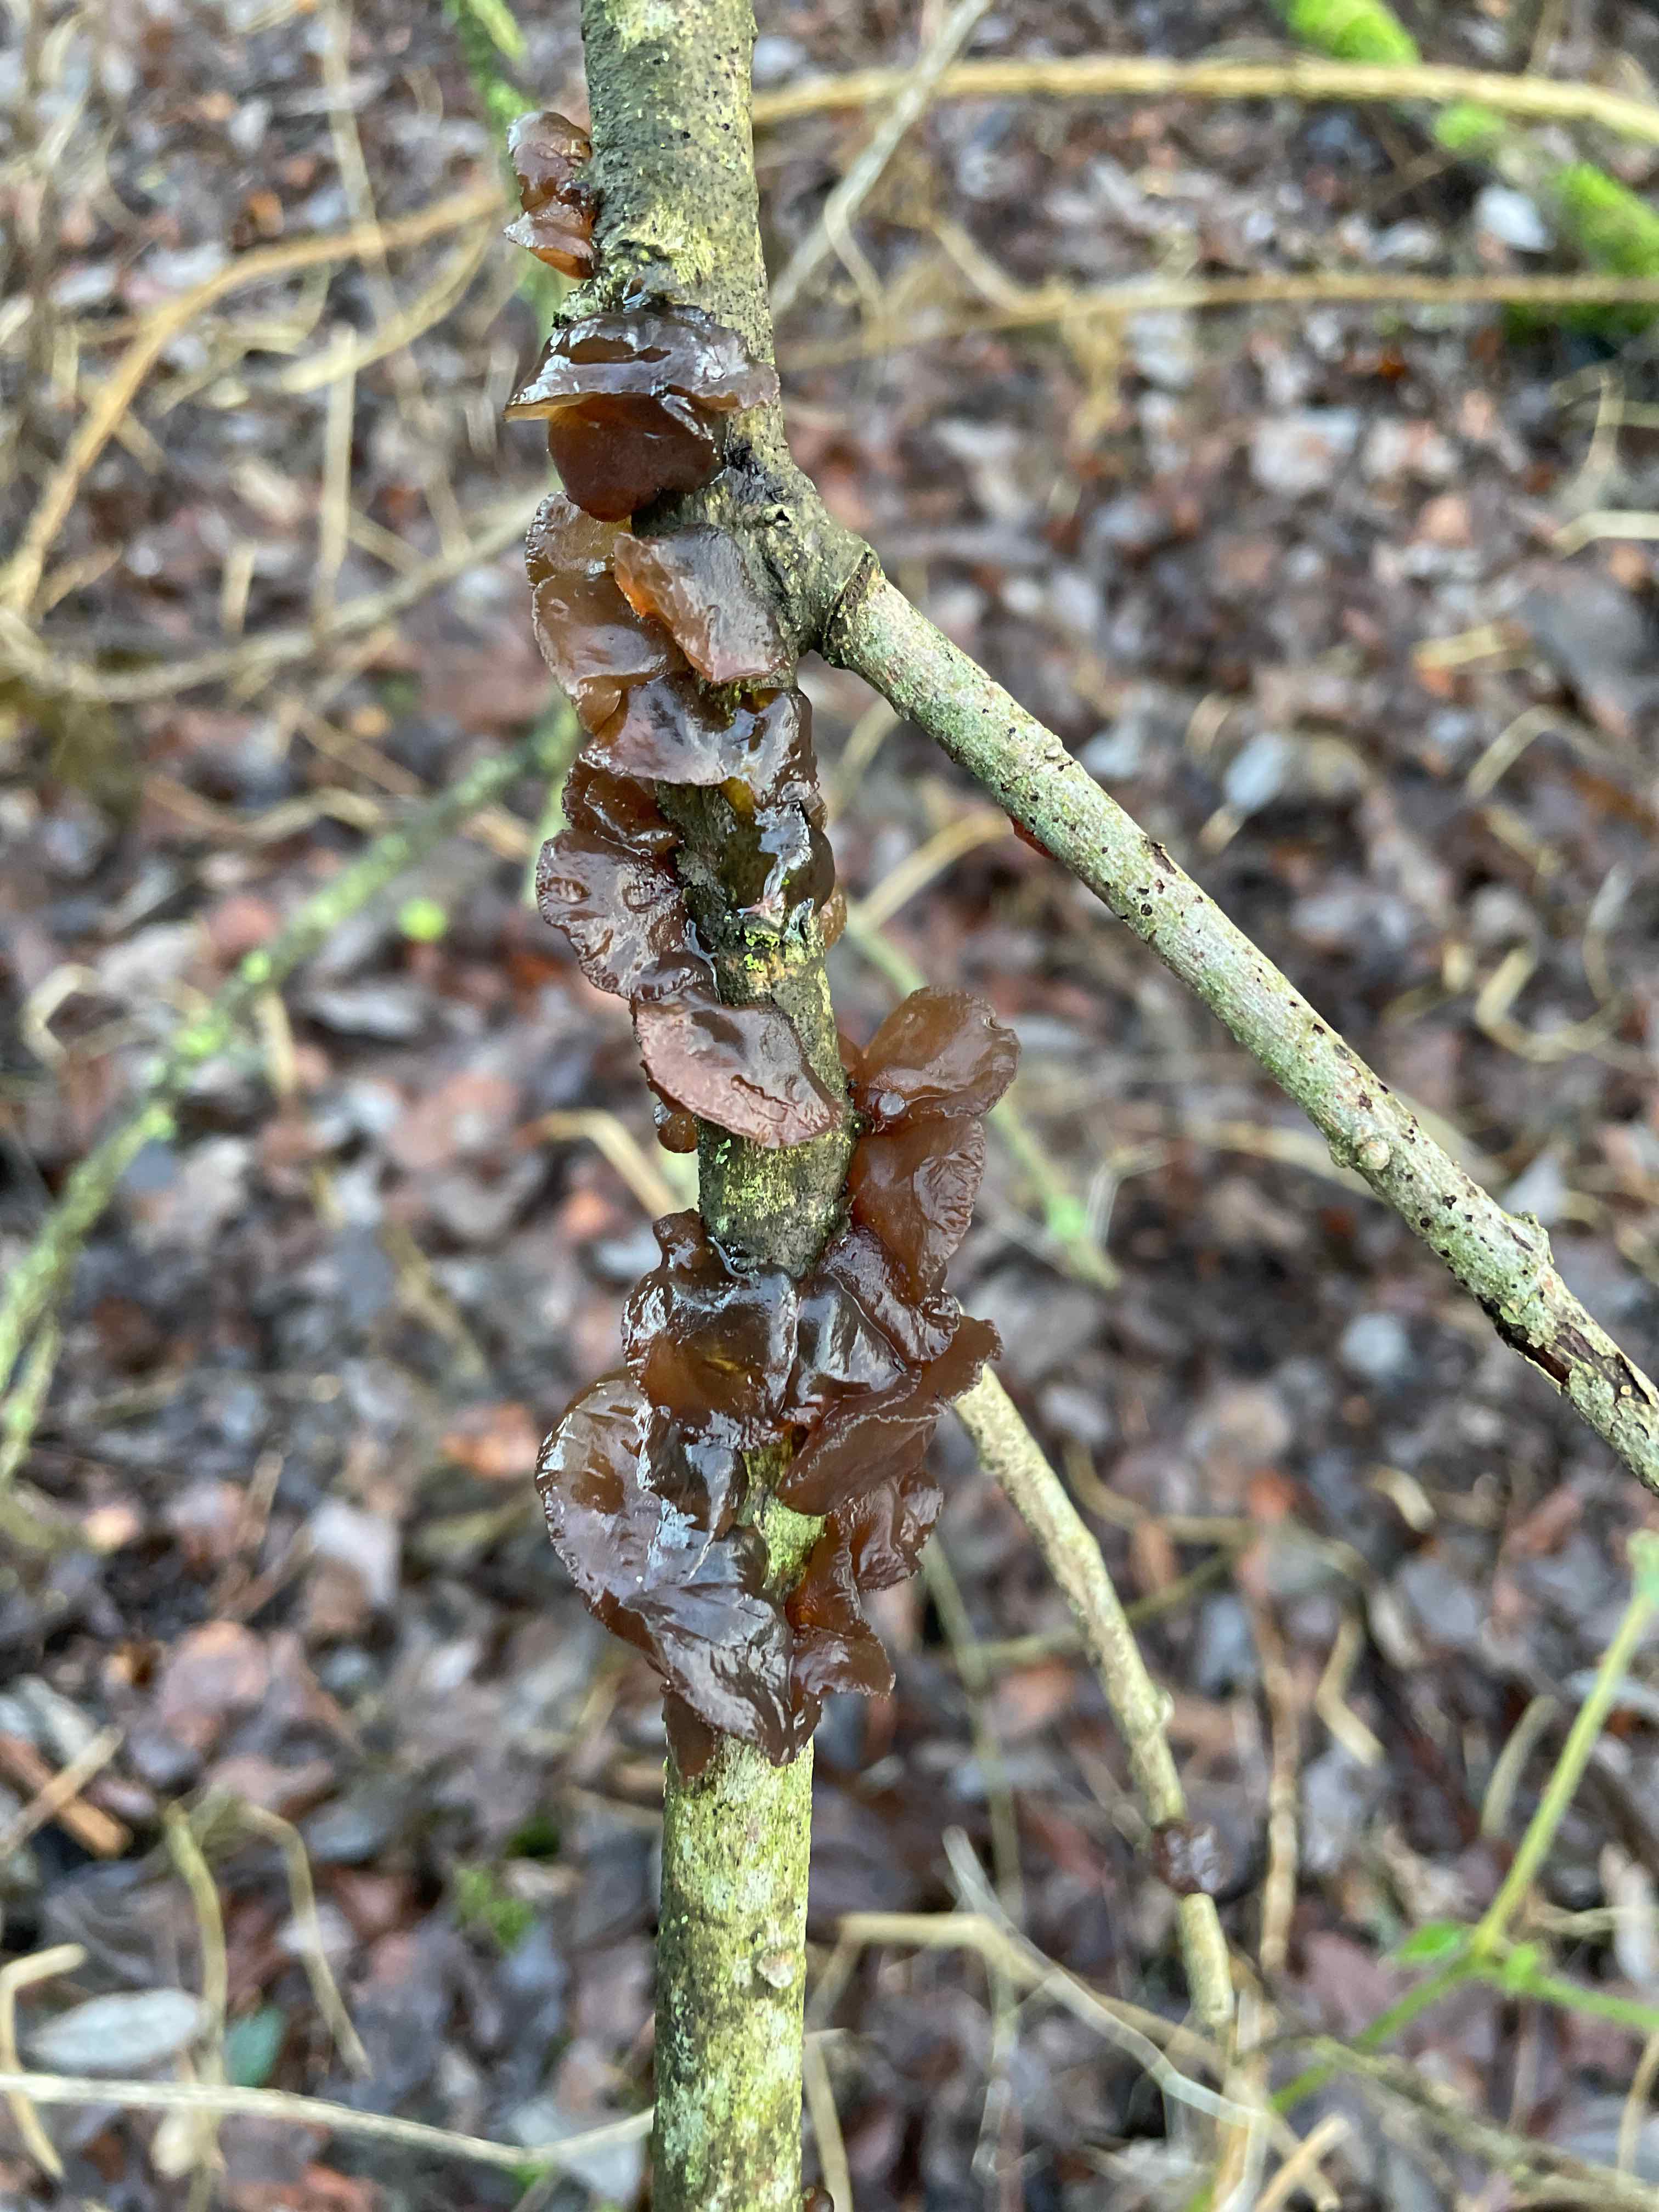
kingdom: Fungi
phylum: Basidiomycota
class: Agaricomycetes
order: Auriculariales
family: Auriculariaceae
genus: Exidia
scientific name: Exidia recisa
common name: pile-bævretop
